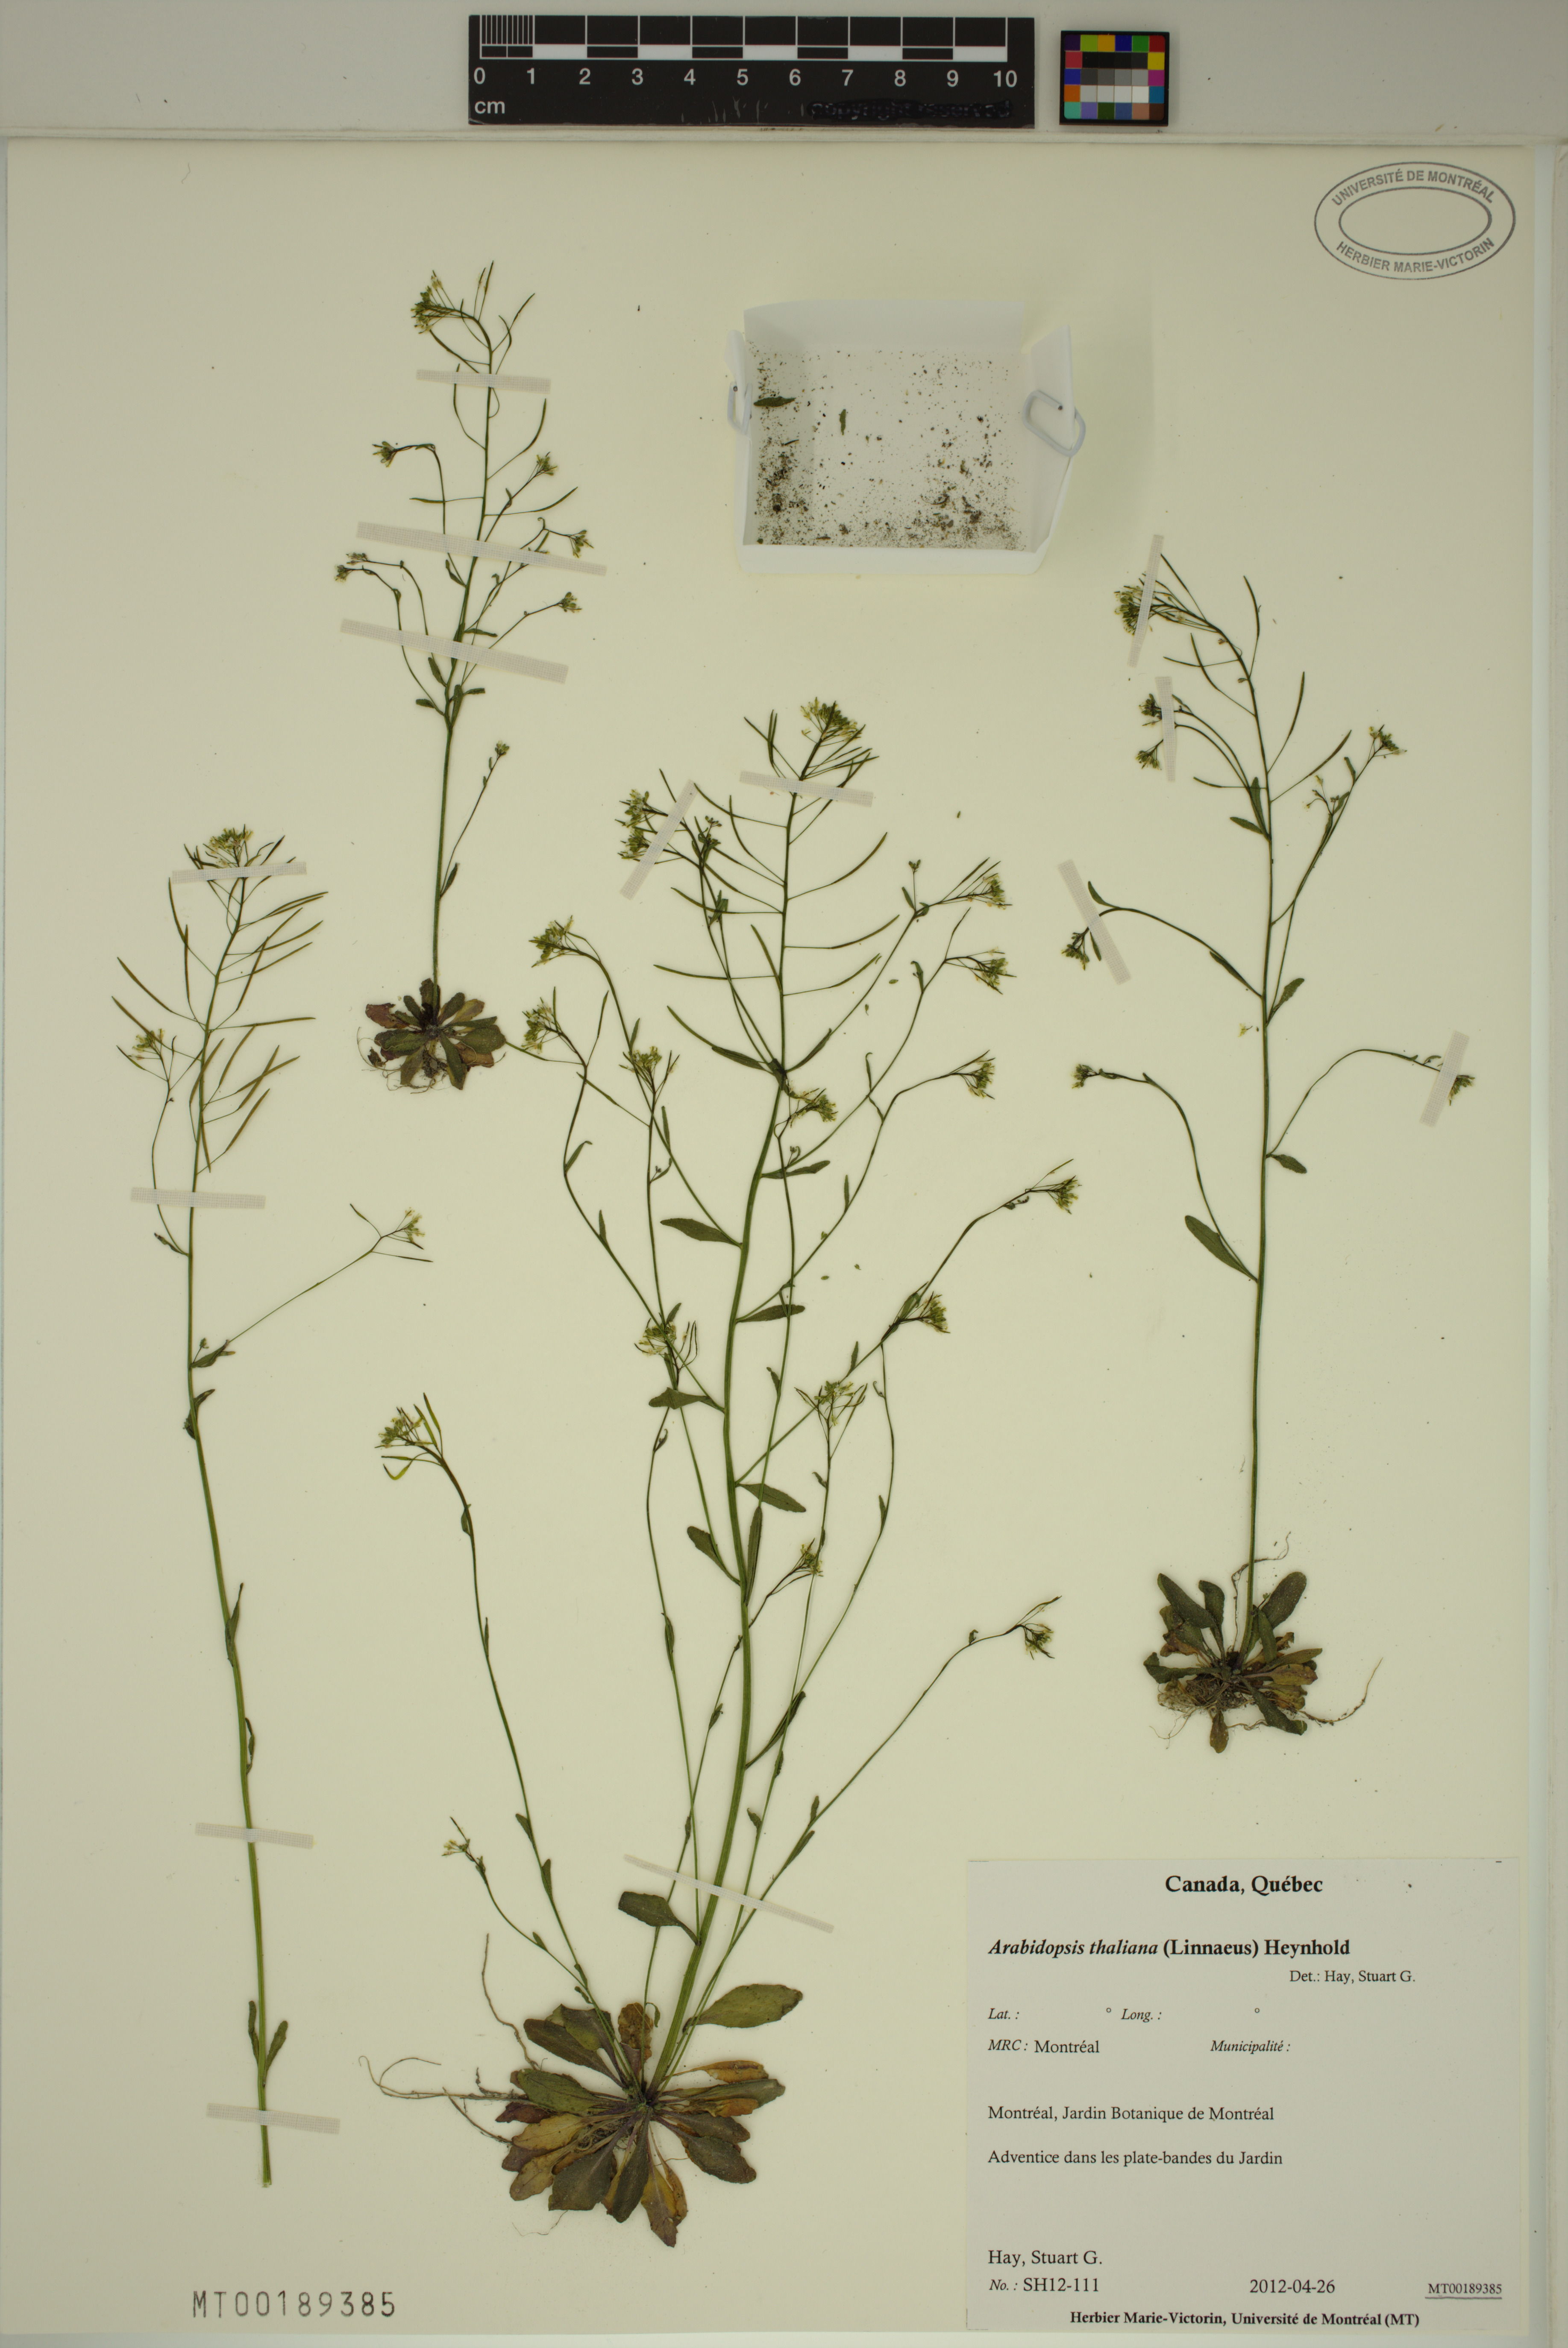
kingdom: Plantae
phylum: Tracheophyta
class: Magnoliopsida
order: Brassicales
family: Brassicaceae
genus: Arabidopsis
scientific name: Arabidopsis thaliana
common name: Thale cress
